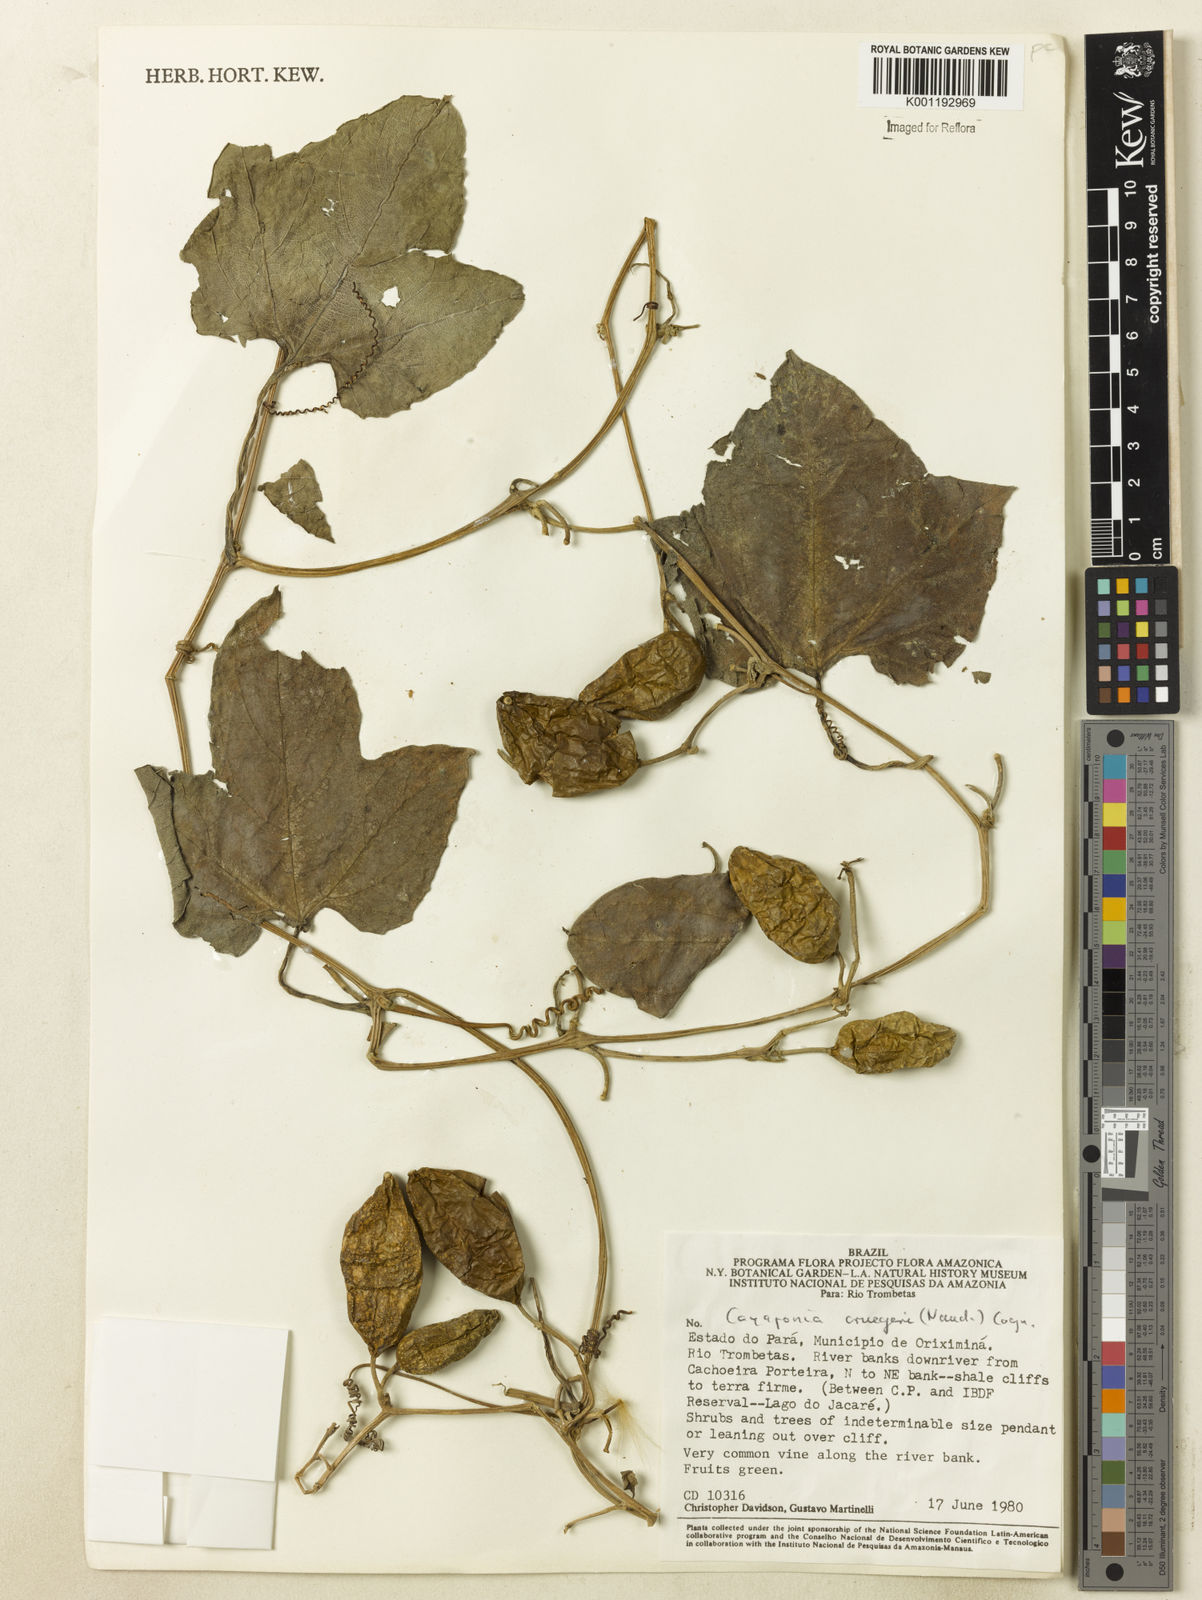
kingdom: Plantae
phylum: Tracheophyta
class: Magnoliopsida
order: Cucurbitales
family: Cucurbitaceae
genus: Cayaponia
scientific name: Cayaponia cruegeri
